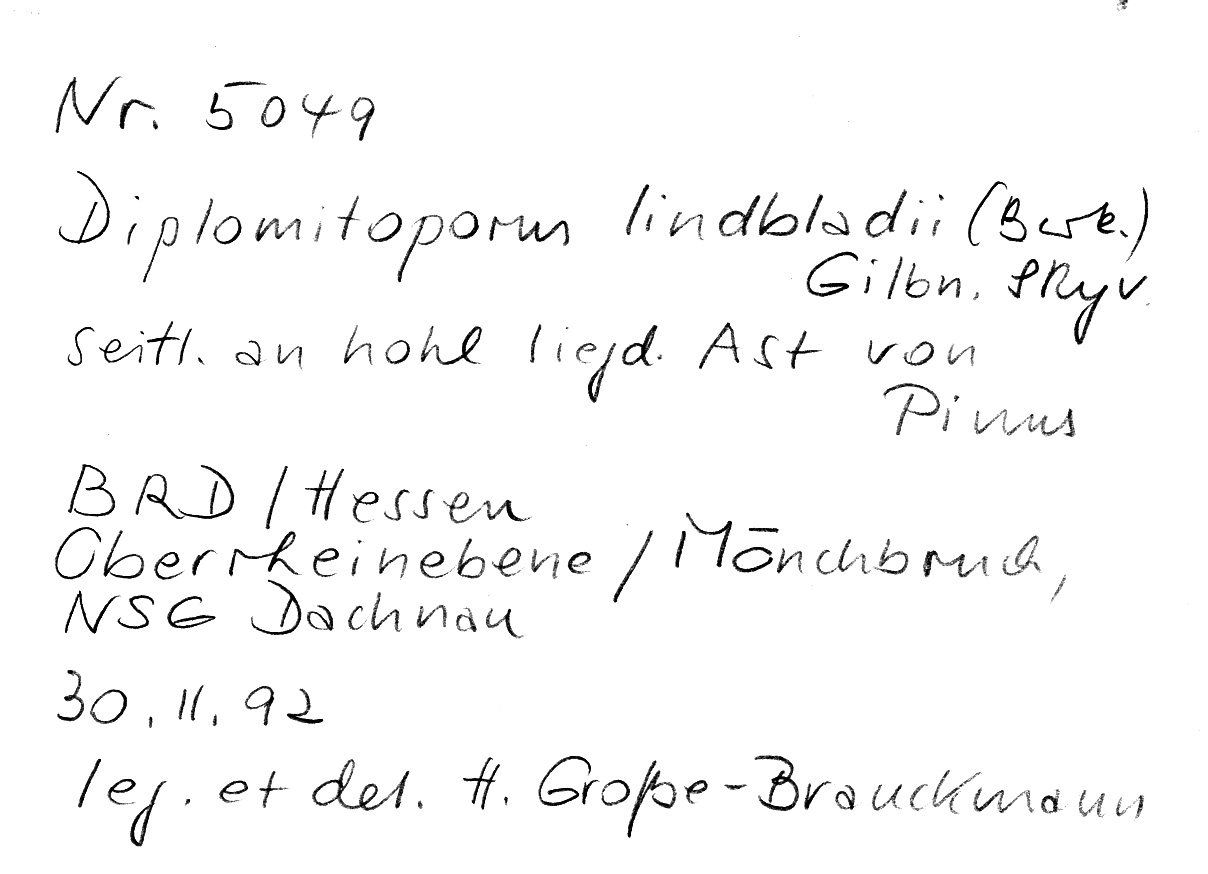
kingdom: Fungi
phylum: Basidiomycota
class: Agaricomycetes
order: Polyporales
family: Gelatoporiaceae
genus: Cinereomyces
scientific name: Cinereomyces lindbladii
